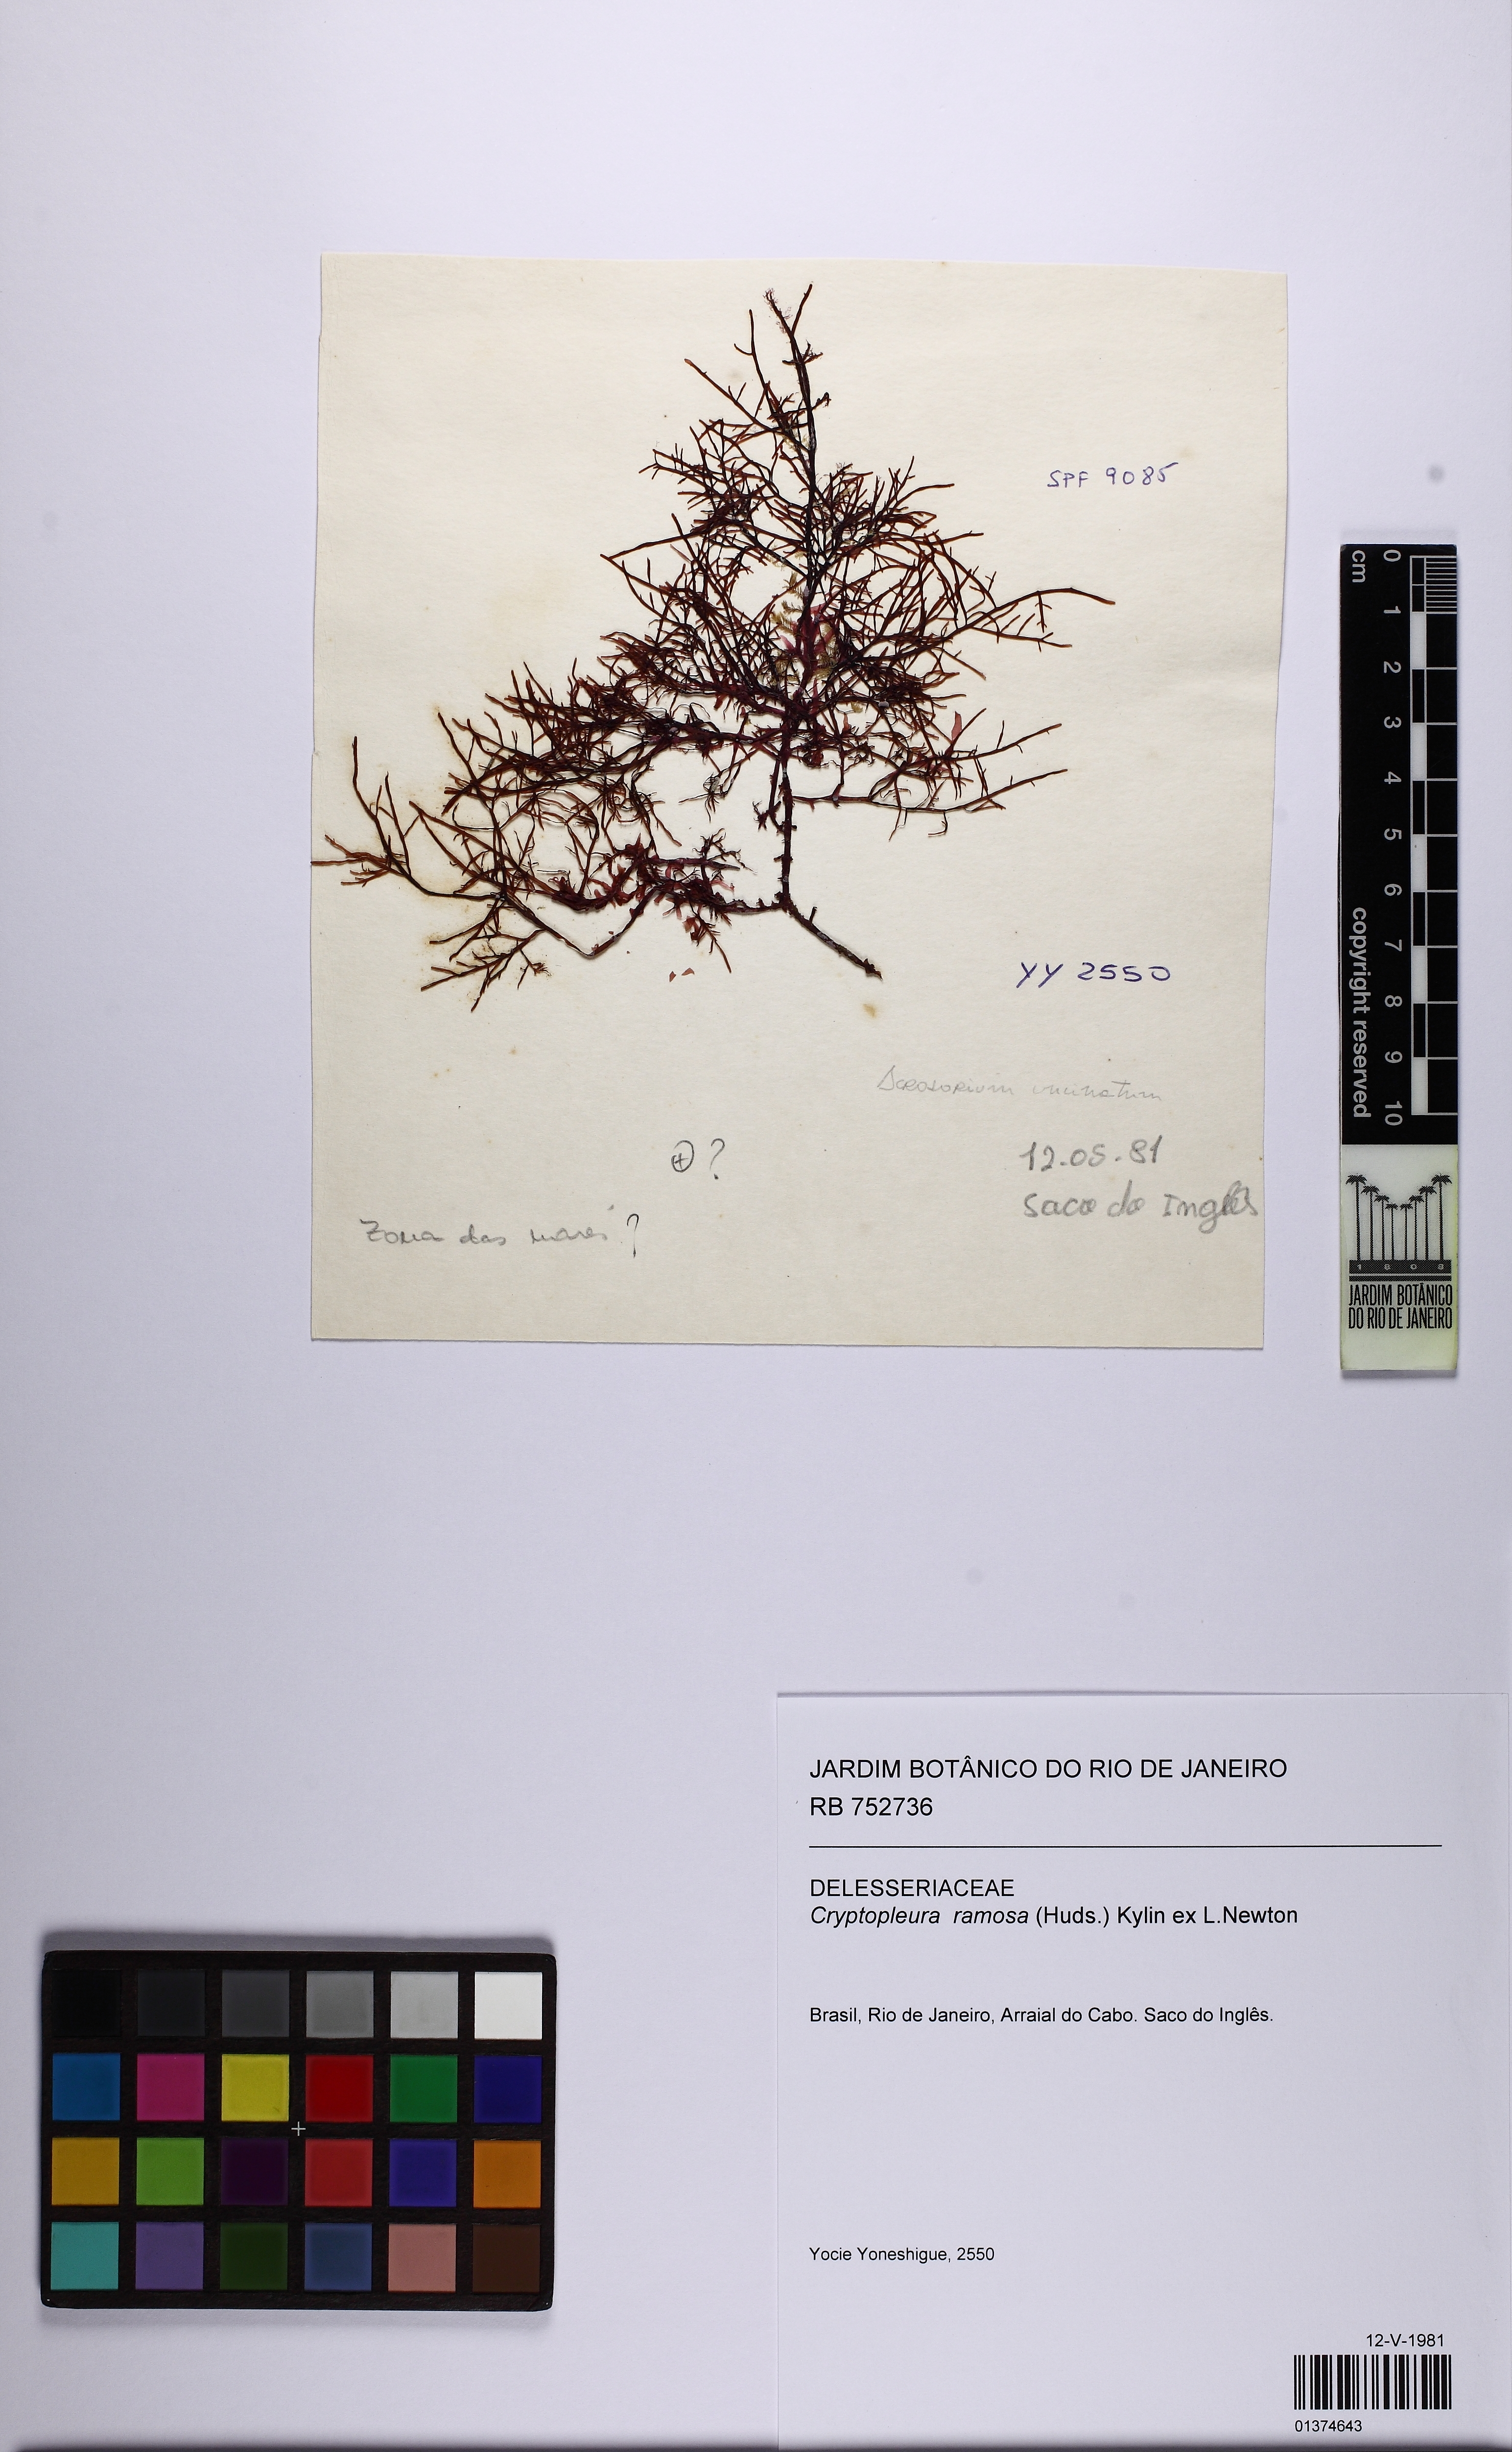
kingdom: Plantae
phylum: Rhodophyta
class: Florideophyceae
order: Ceramiales
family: Delesseriaceae
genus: Cryptopleura
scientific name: Cryptopleura ramosa
